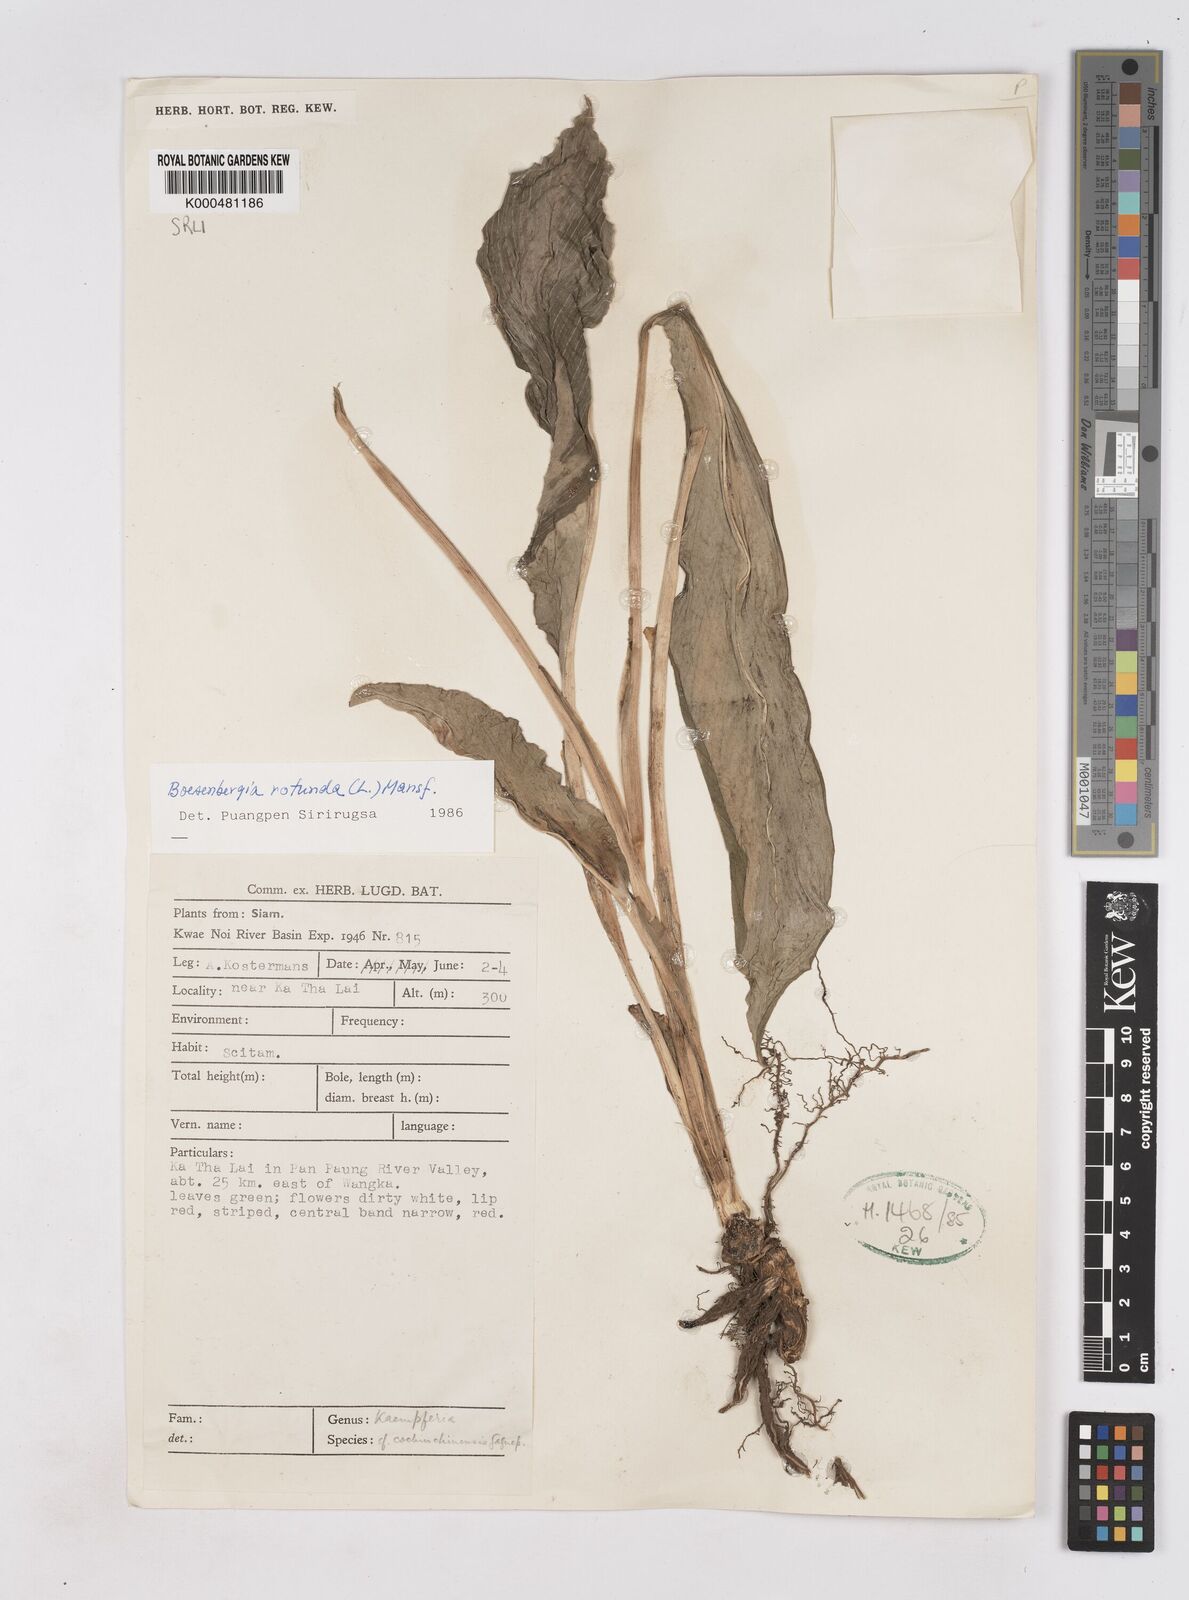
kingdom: Plantae
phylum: Tracheophyta
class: Liliopsida
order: Zingiberales
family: Zingiberaceae
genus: Boesenbergia
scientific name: Boesenbergia rotunda
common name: Chinese ginger
